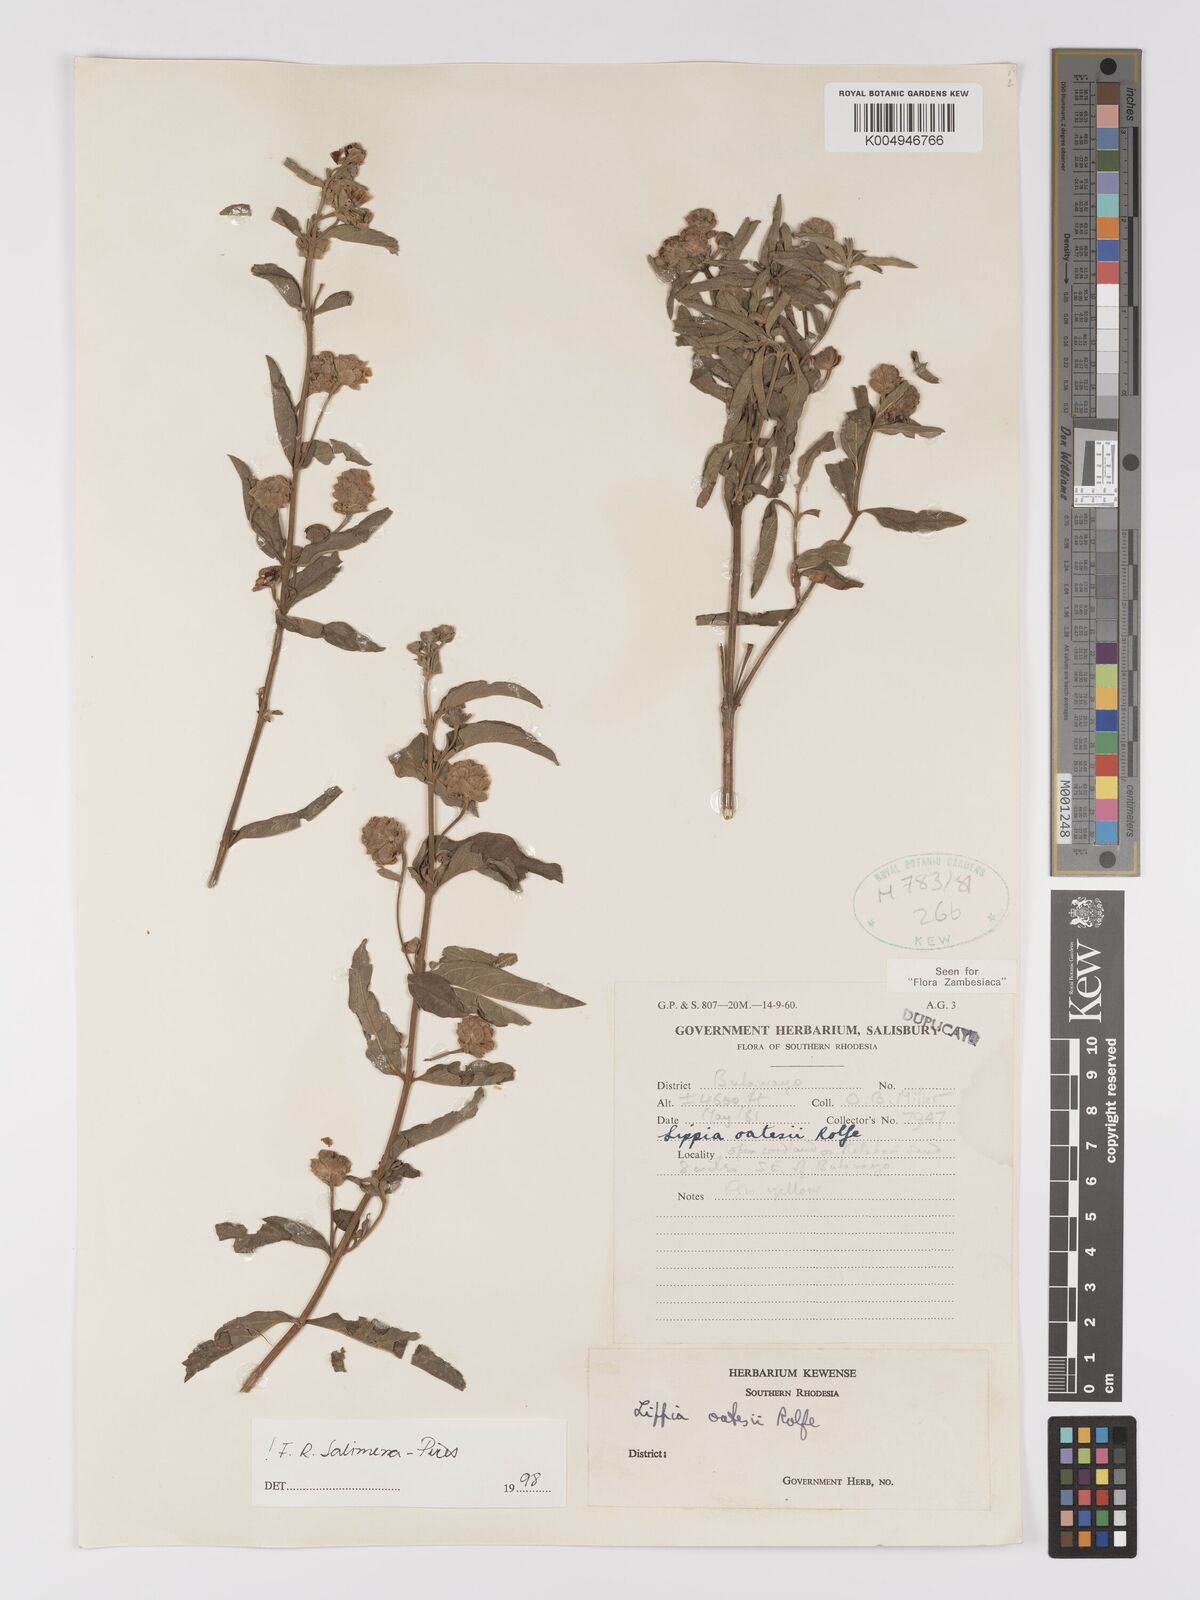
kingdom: Plantae
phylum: Tracheophyta
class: Magnoliopsida
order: Lamiales
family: Verbenaceae
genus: Lippia
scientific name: Lippia oatesii
